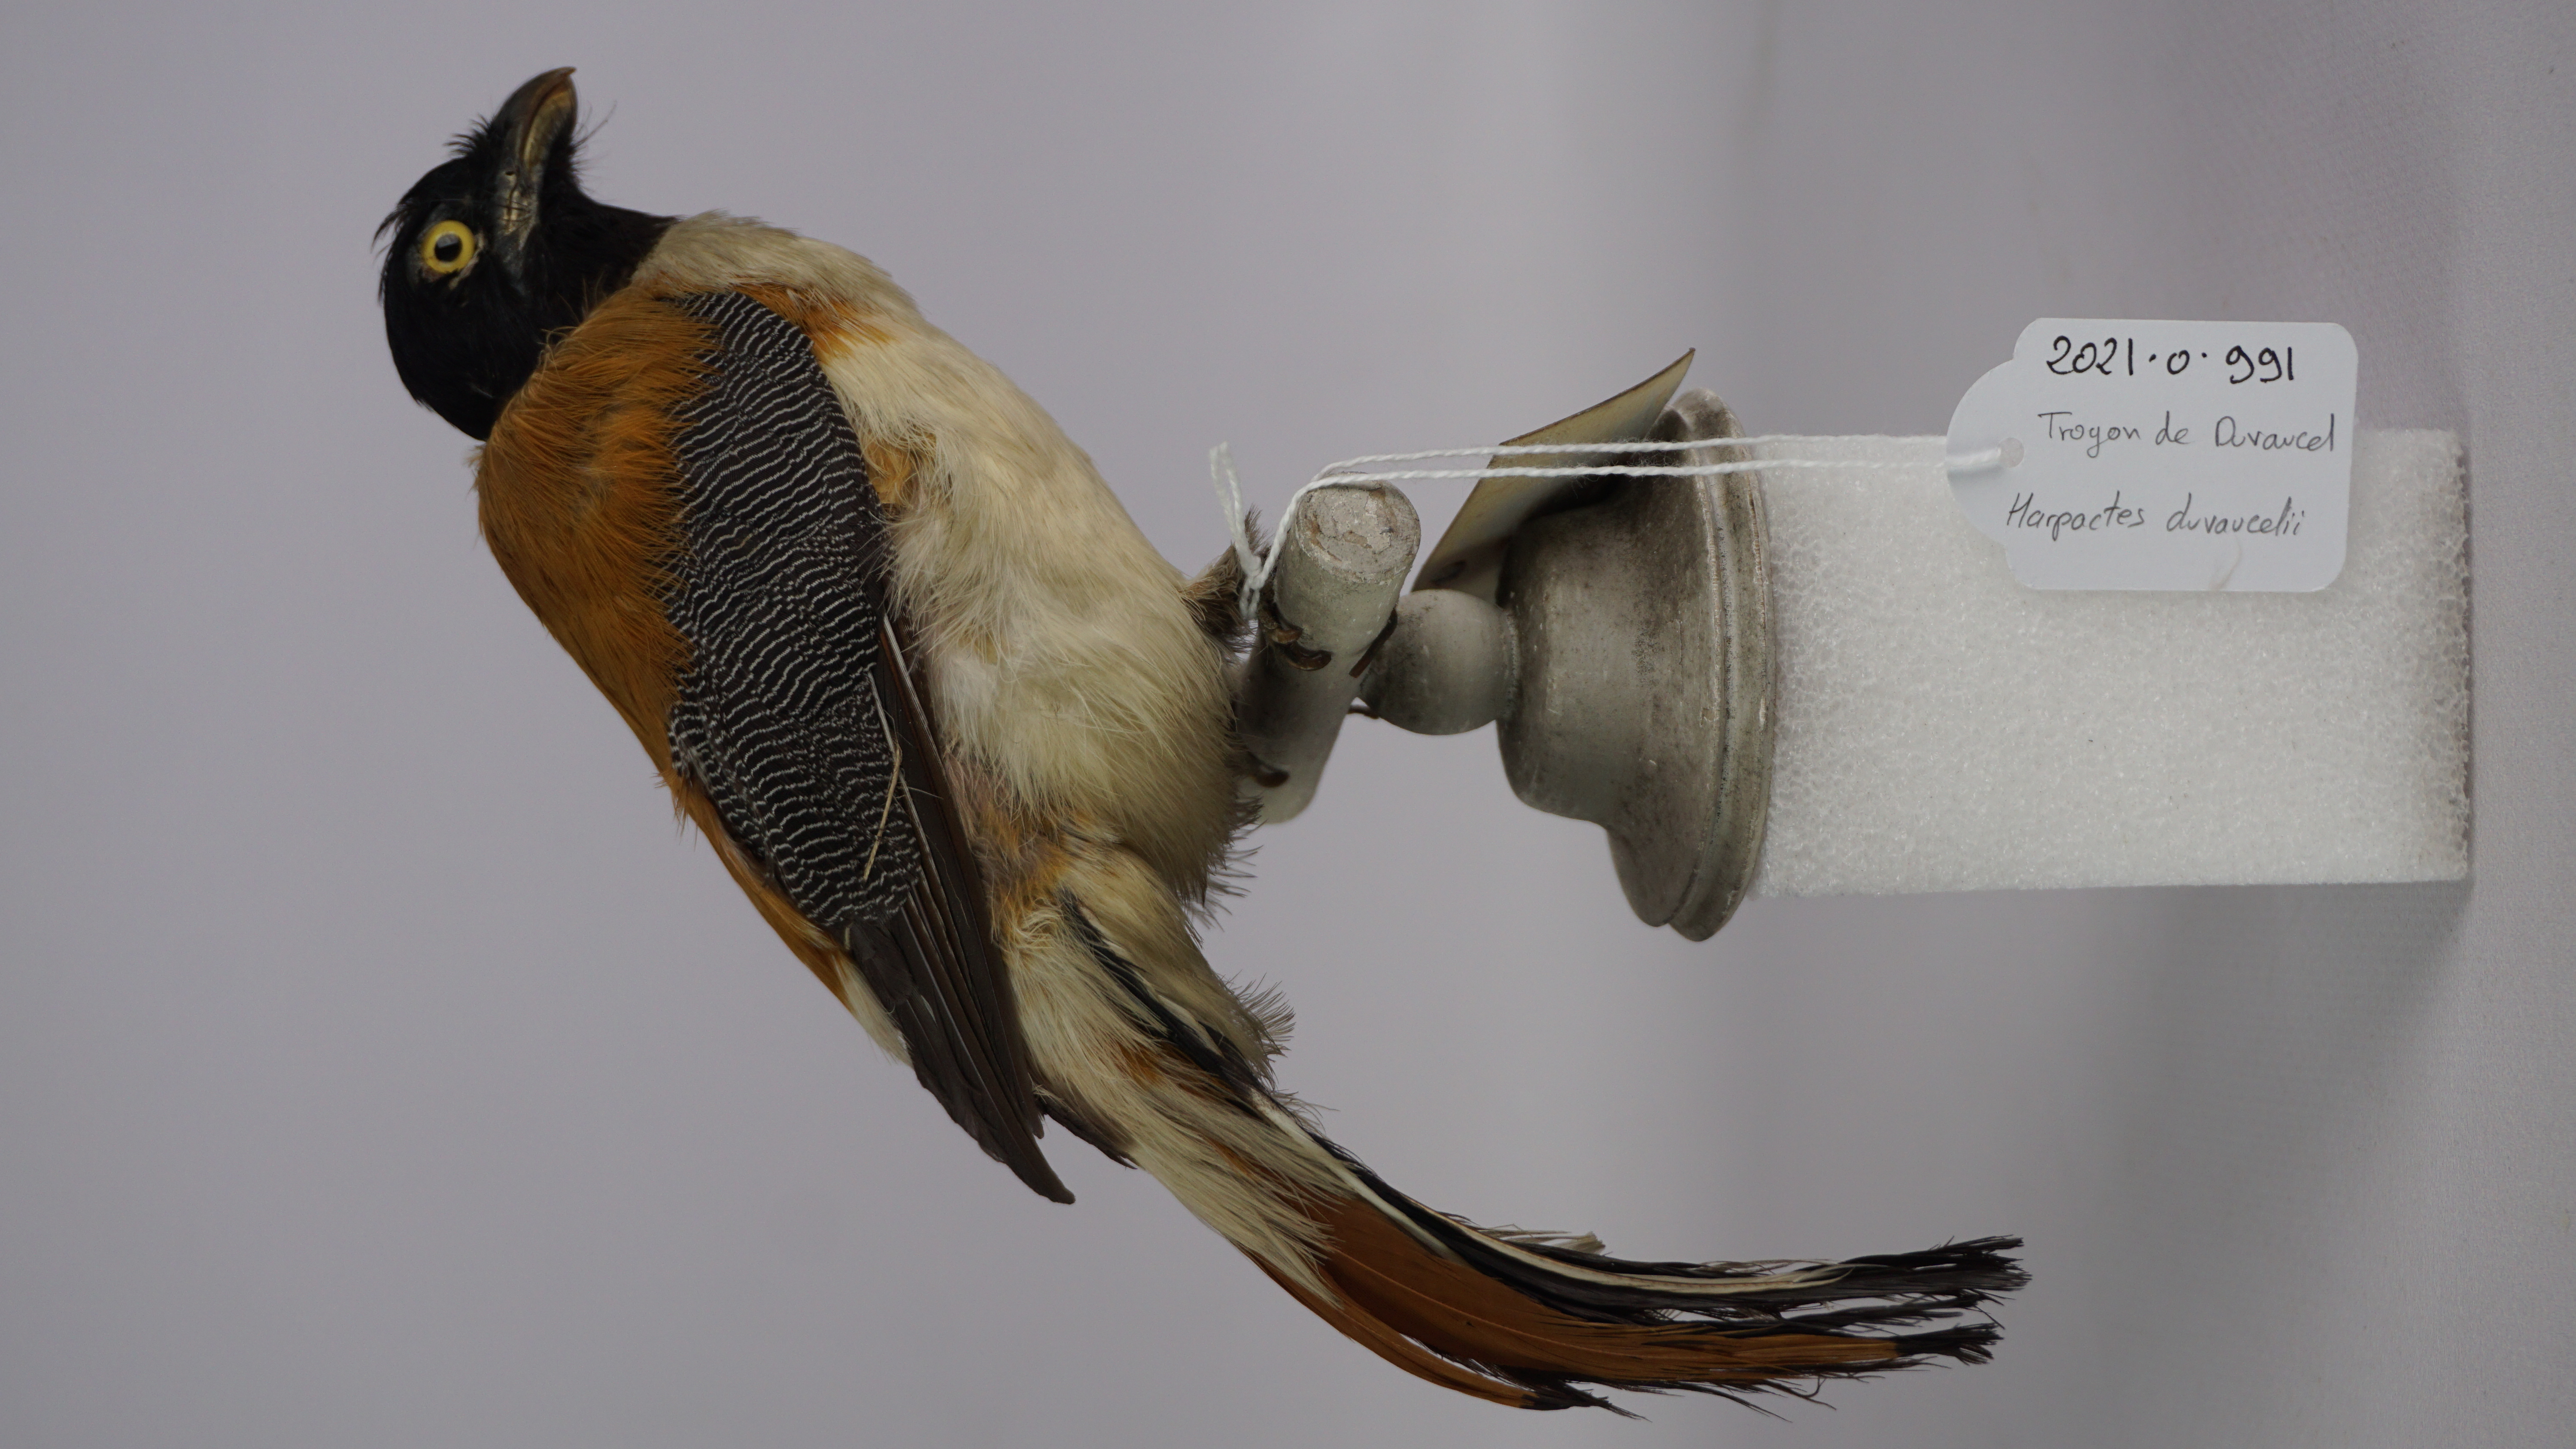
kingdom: Animalia
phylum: Chordata
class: Aves
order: Trogoniformes
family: Trogonidae
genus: Harpactes
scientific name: Harpactes duvaucelii
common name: Scarlet-rumped trogon
